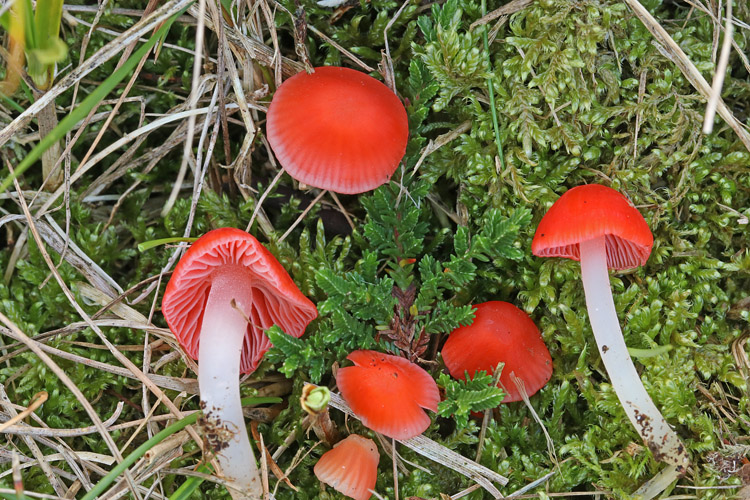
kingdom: Fungi
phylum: Basidiomycota
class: Agaricomycetes
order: Agaricales
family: Mycenaceae
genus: Atheniella
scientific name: Atheniella adonis
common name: rønnerød huesvamp
